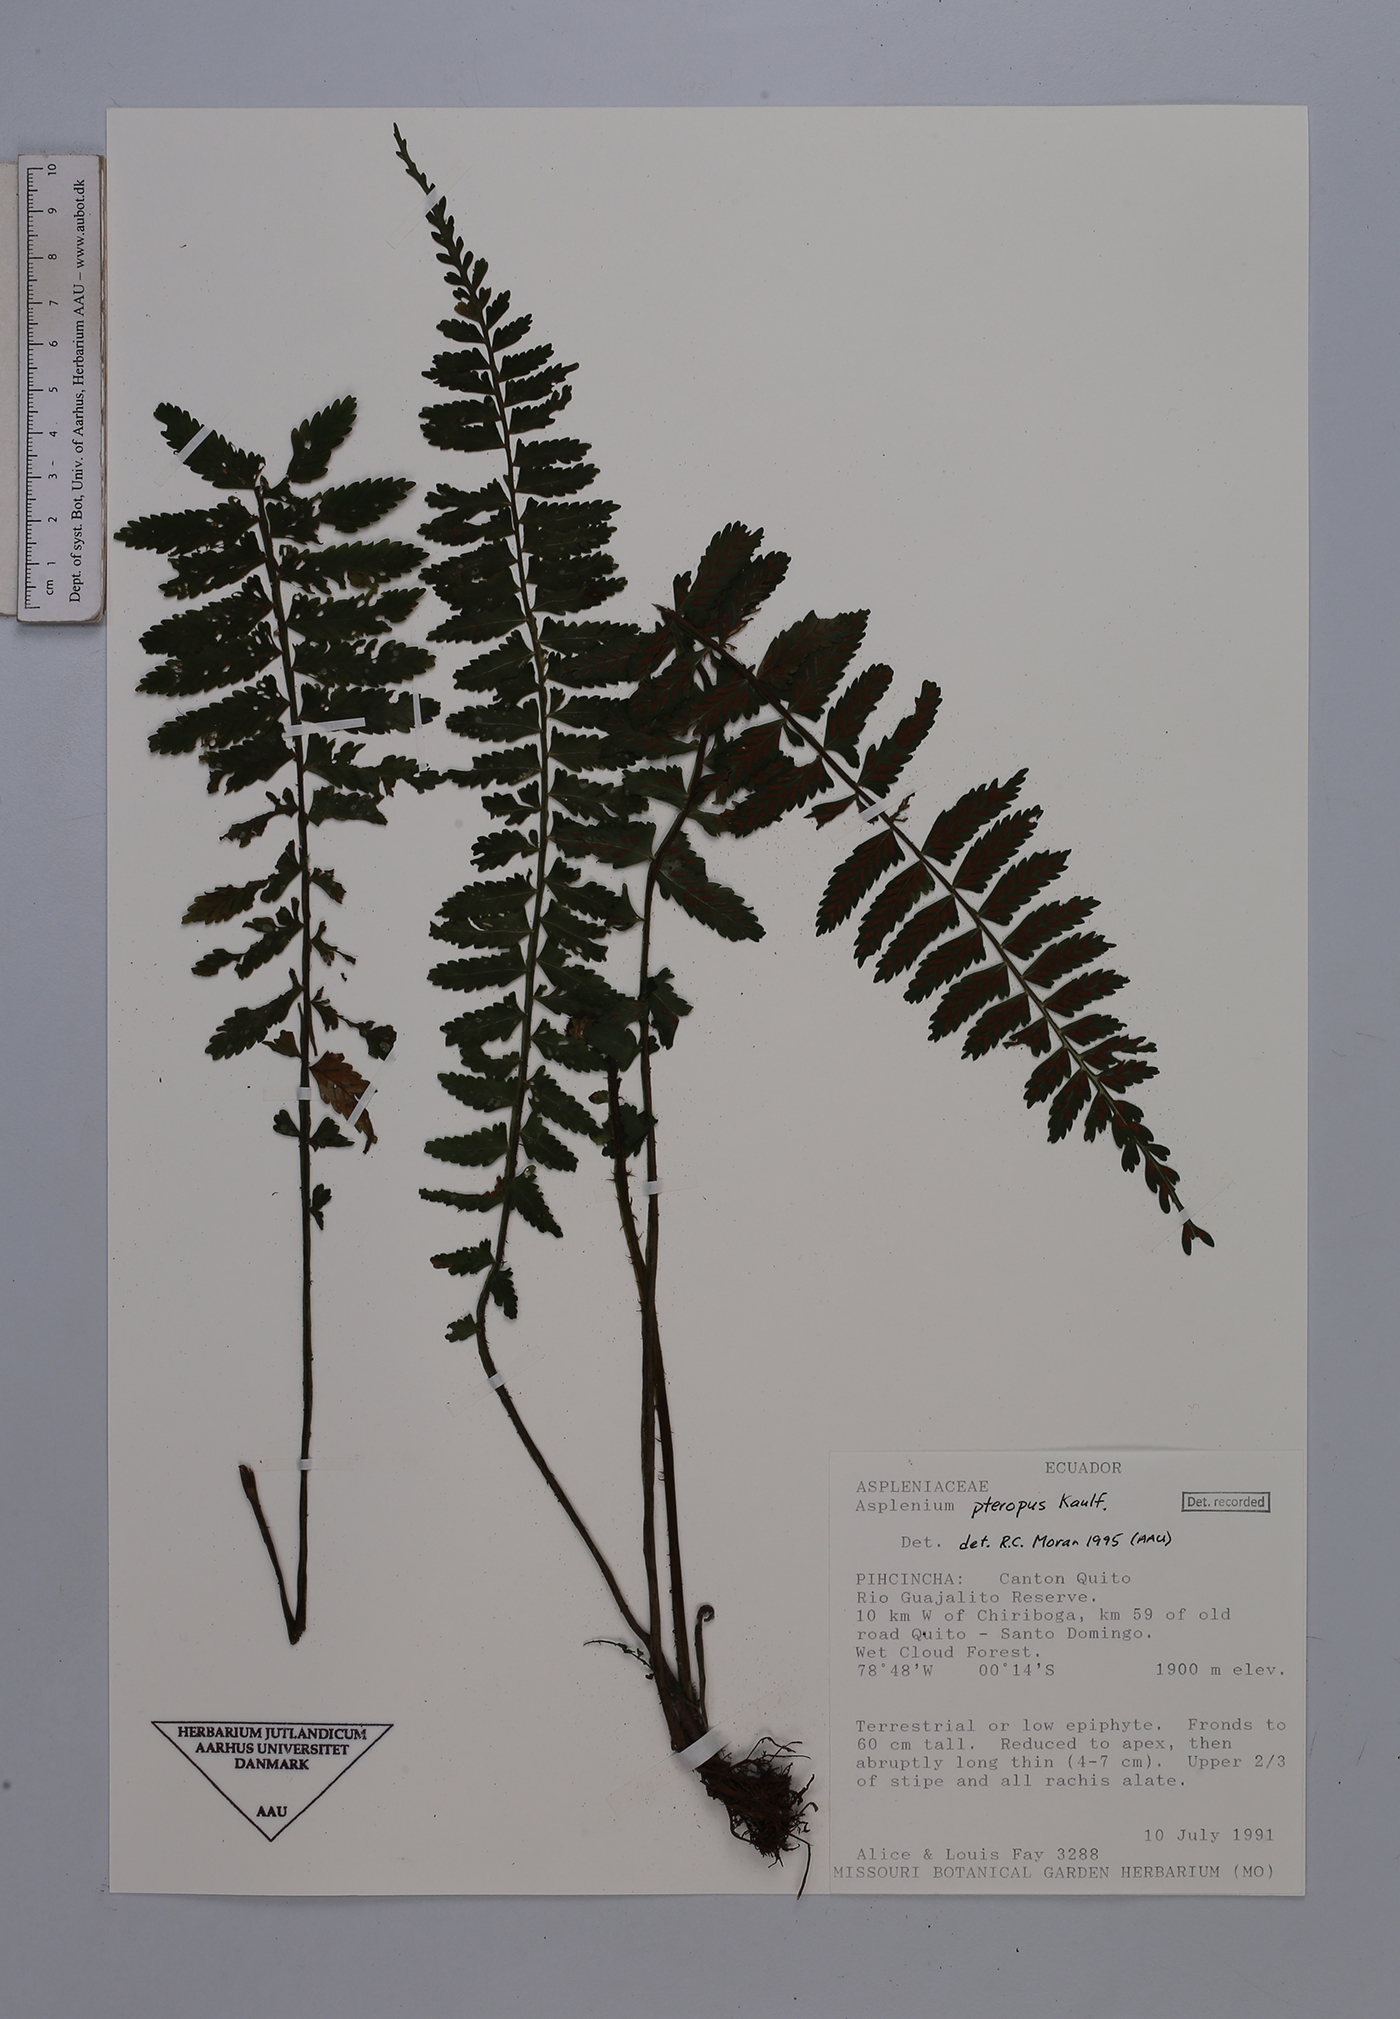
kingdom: Plantae
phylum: Tracheophyta
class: Polypodiopsida
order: Polypodiales
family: Aspleniaceae
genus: Asplenium
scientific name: Asplenium pteropus
